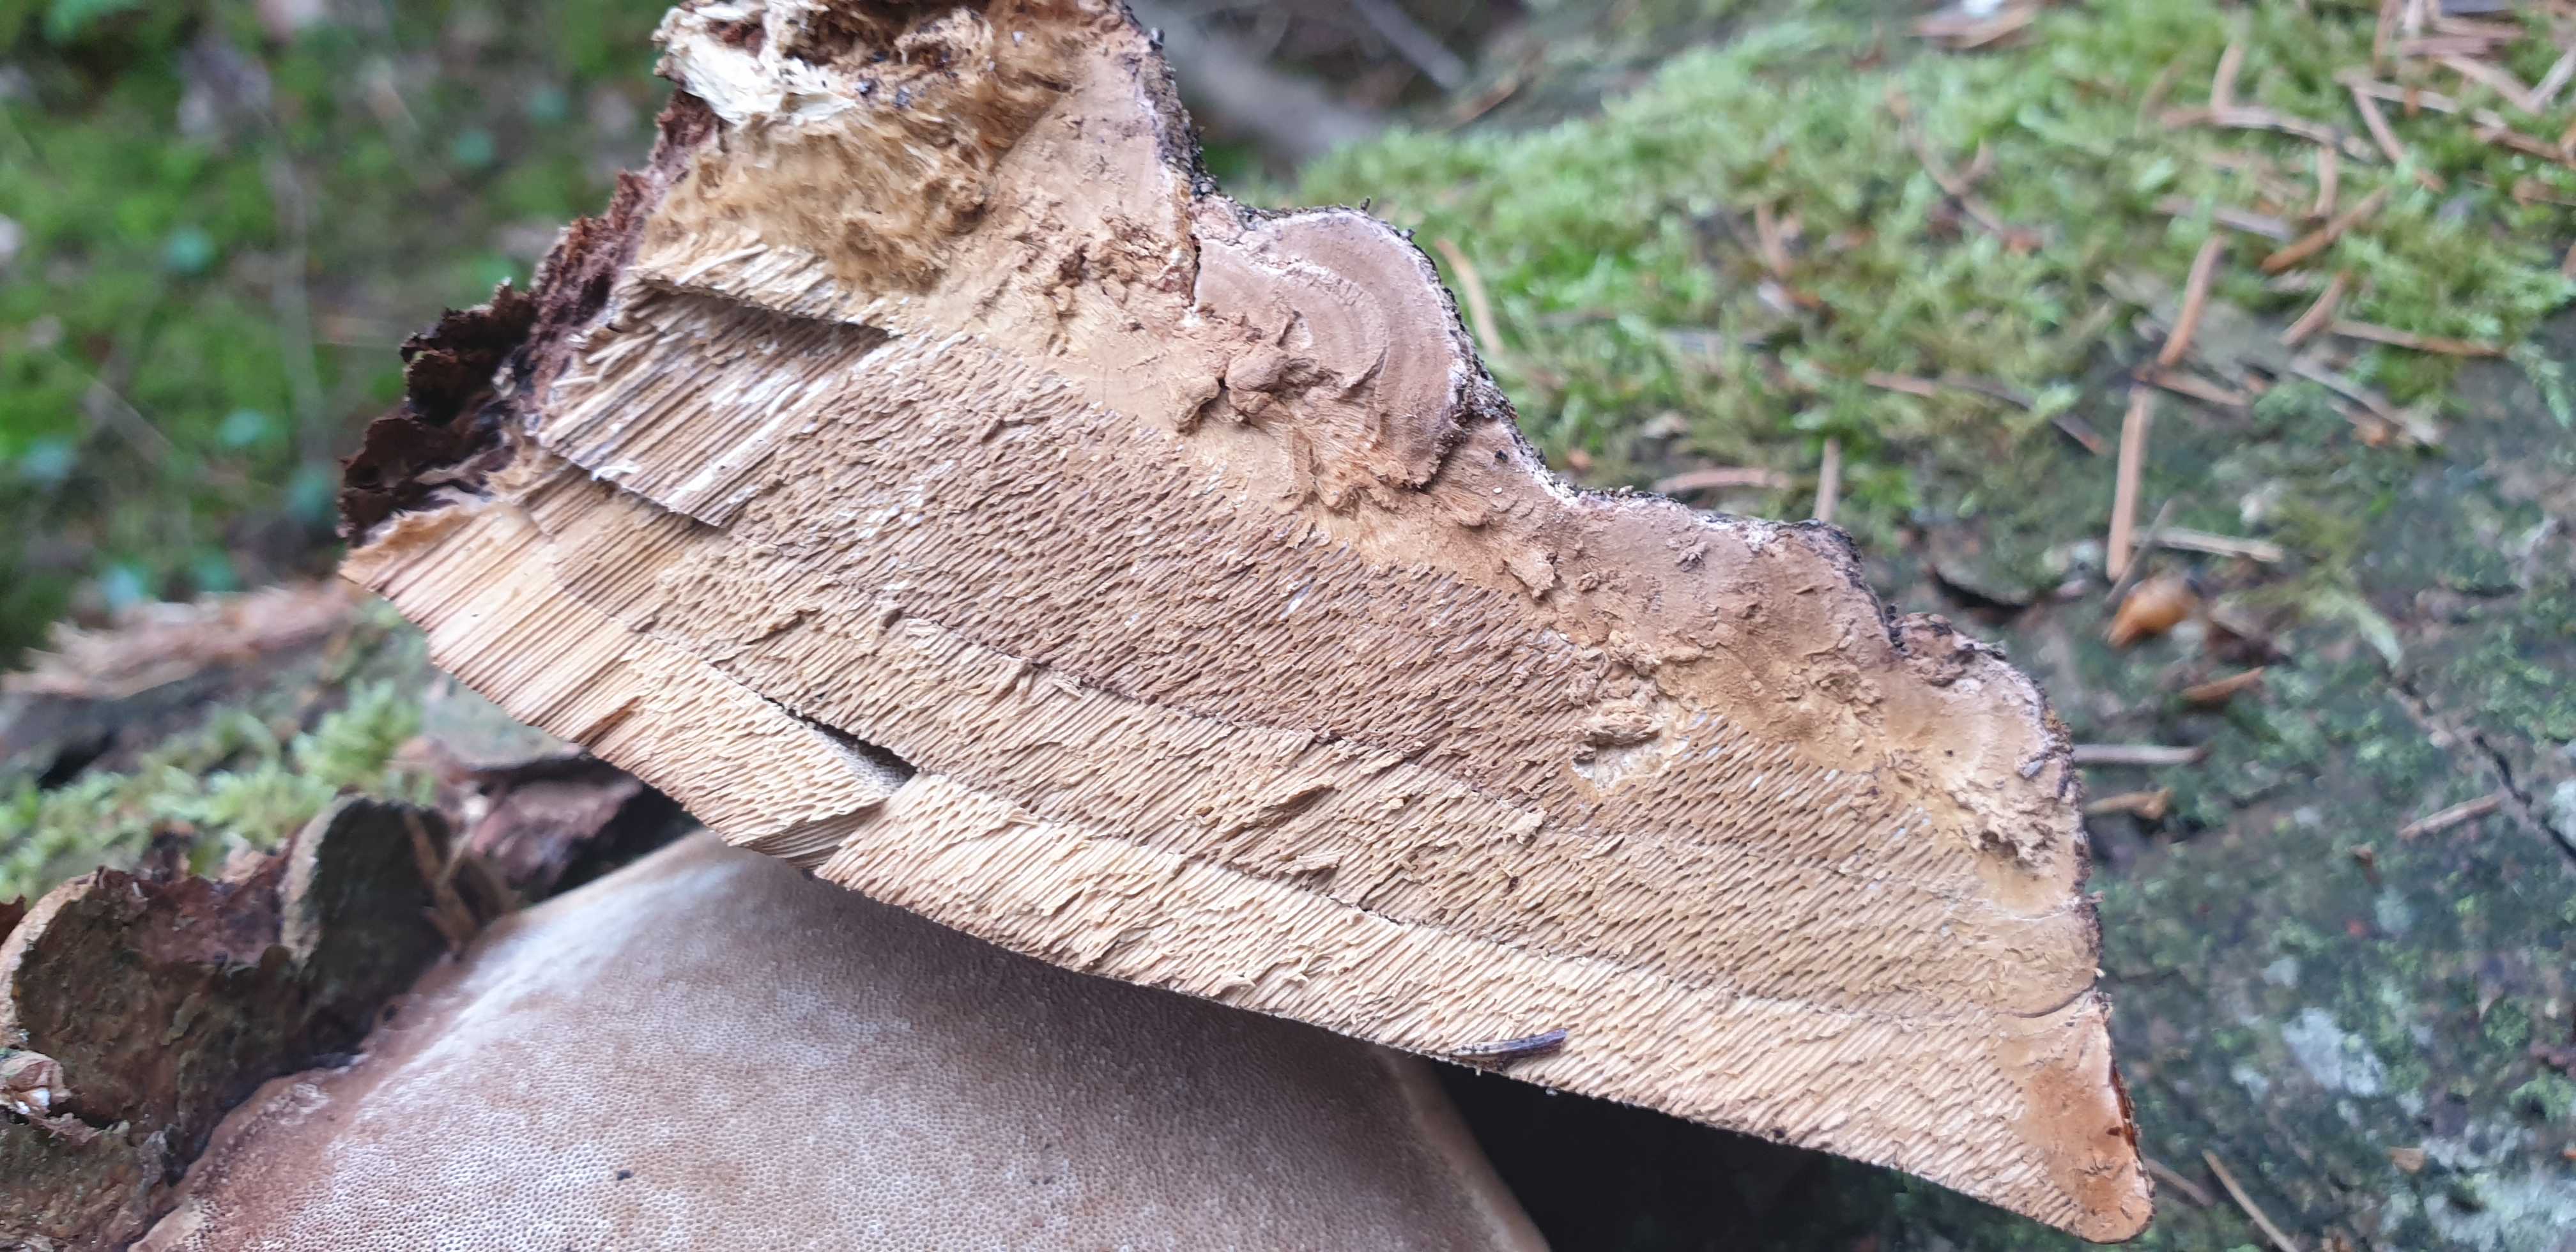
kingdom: Fungi
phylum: Basidiomycota
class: Agaricomycetes
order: Polyporales
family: Fomitopsidaceae
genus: Fomitopsis
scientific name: Fomitopsis pinicola
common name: randbæltet hovporesvamp
